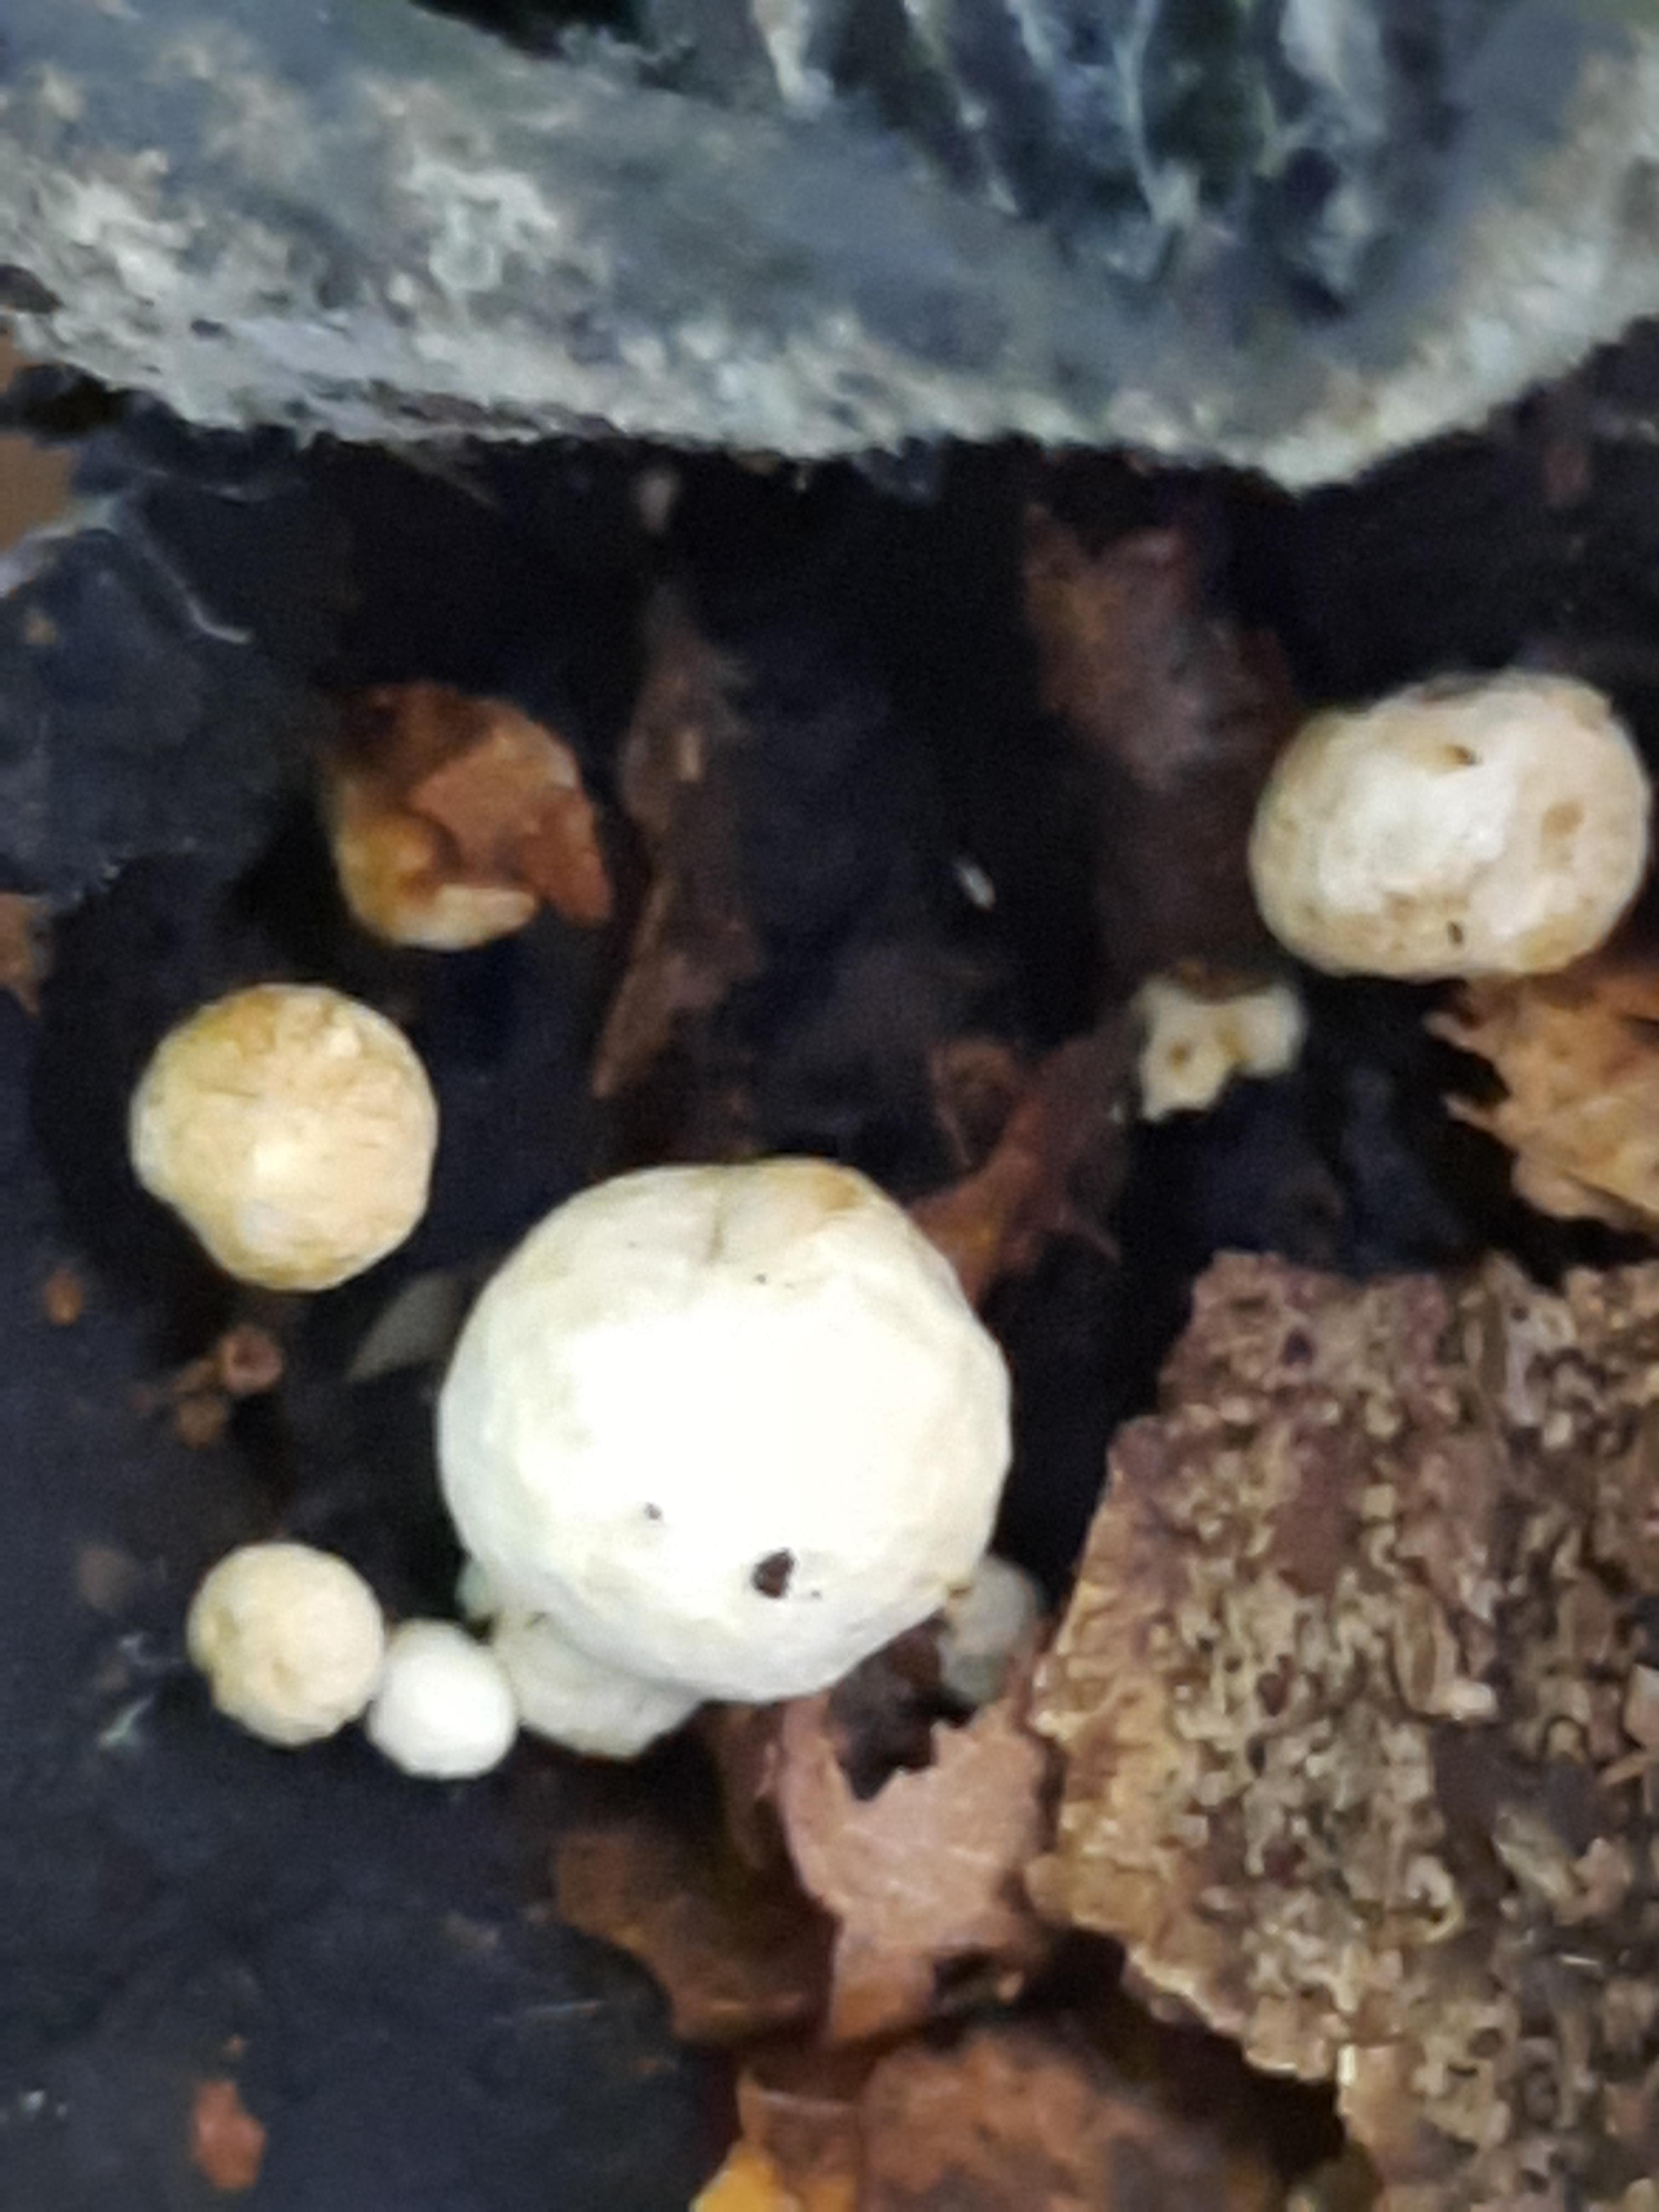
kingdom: Fungi
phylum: Basidiomycota
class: Agaricomycetes
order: Agaricales
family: Lyophyllaceae
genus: Asterophora
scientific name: Asterophora
